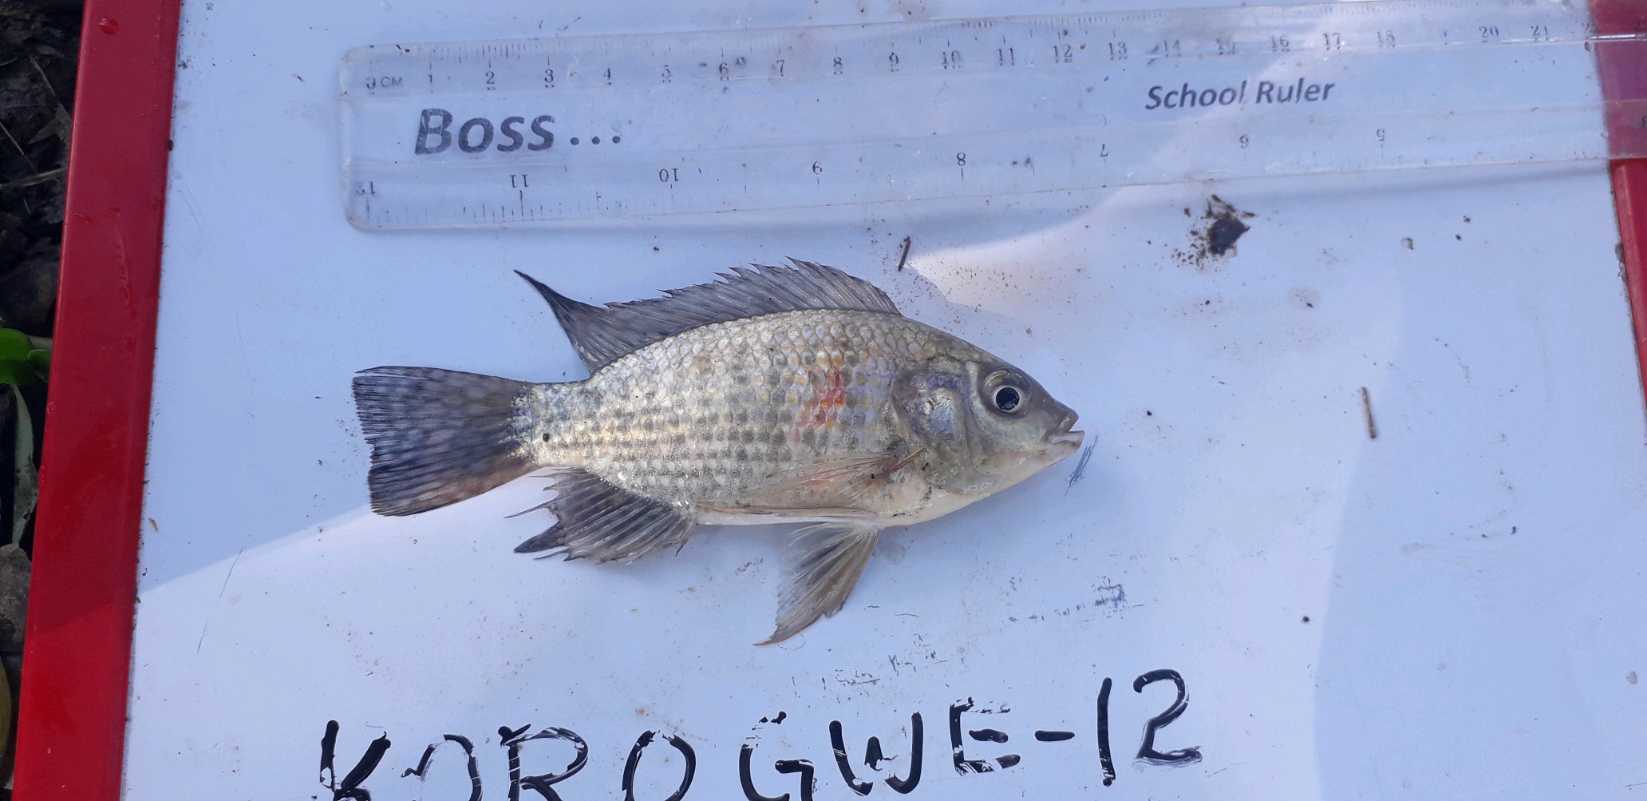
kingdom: Animalia
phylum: Chordata
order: Perciformes
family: Cichlidae
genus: Oreochromis
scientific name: Oreochromis leucostictus
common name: Blue spotted tilapia
